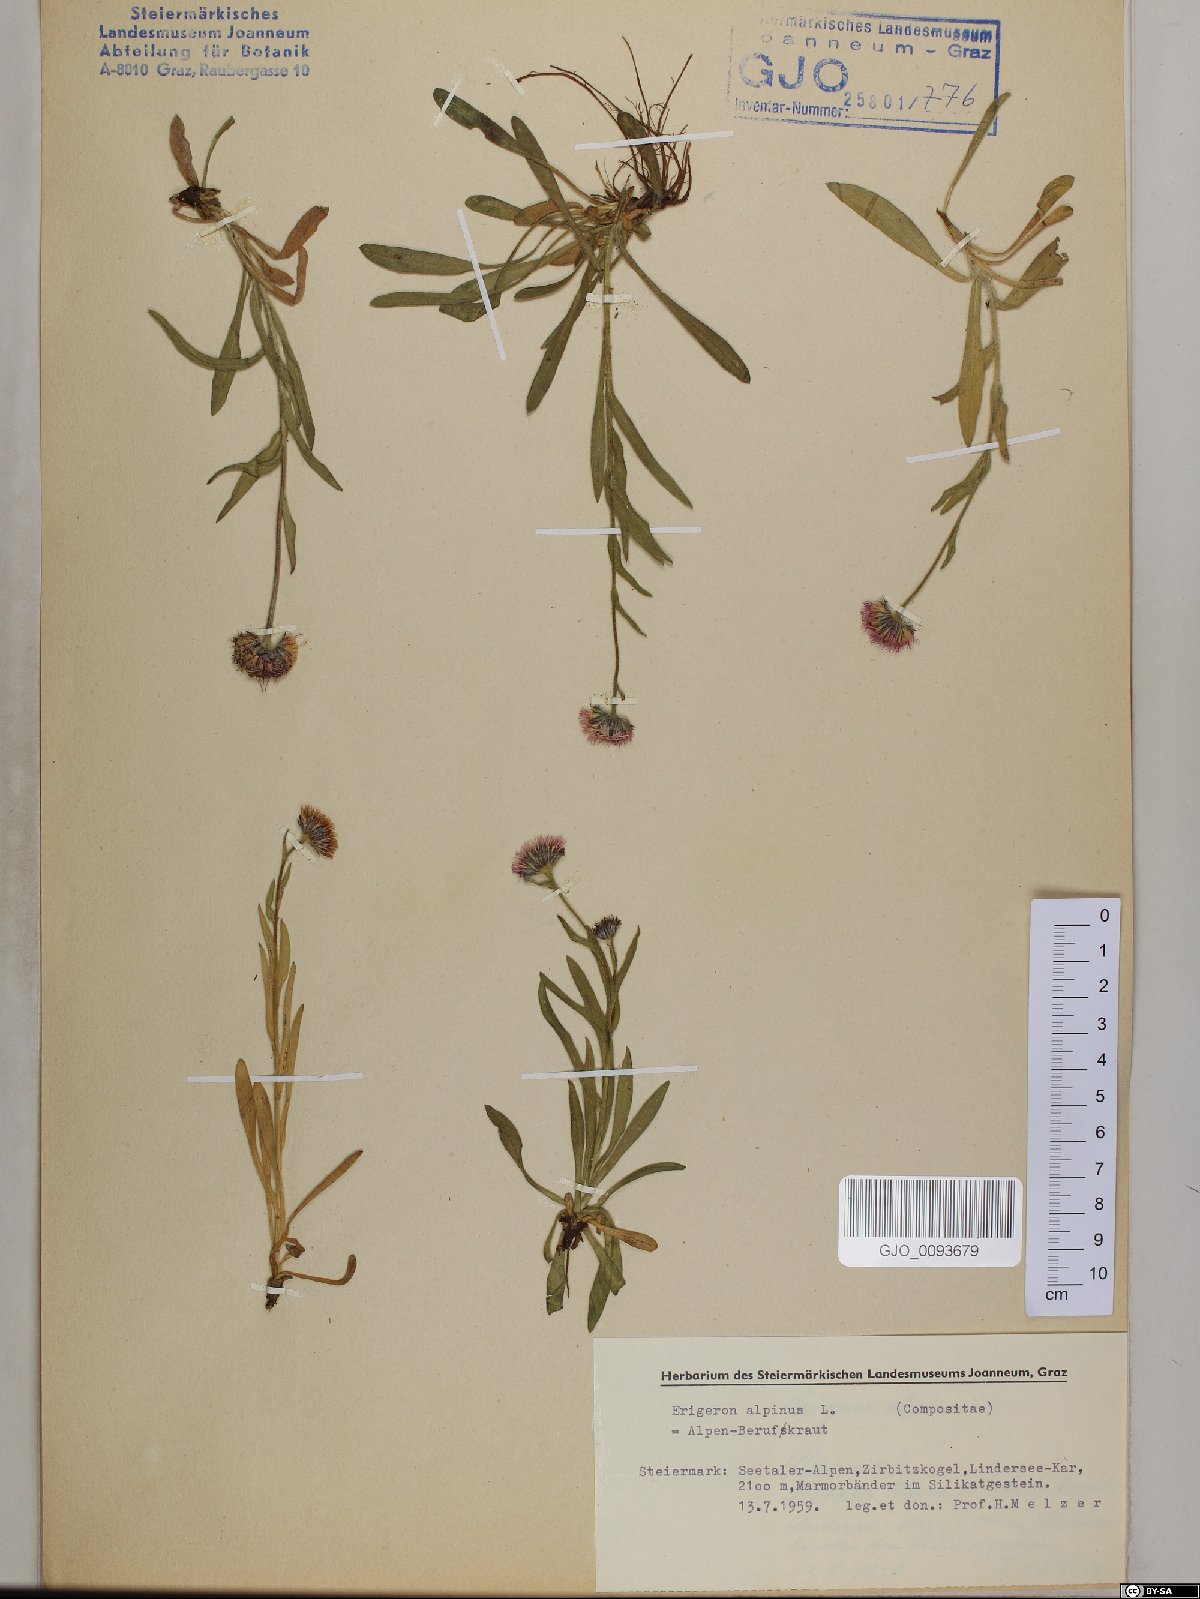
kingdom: Plantae
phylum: Tracheophyta
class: Magnoliopsida
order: Asterales
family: Asteraceae
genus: Erigeron
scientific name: Erigeron alpinus
